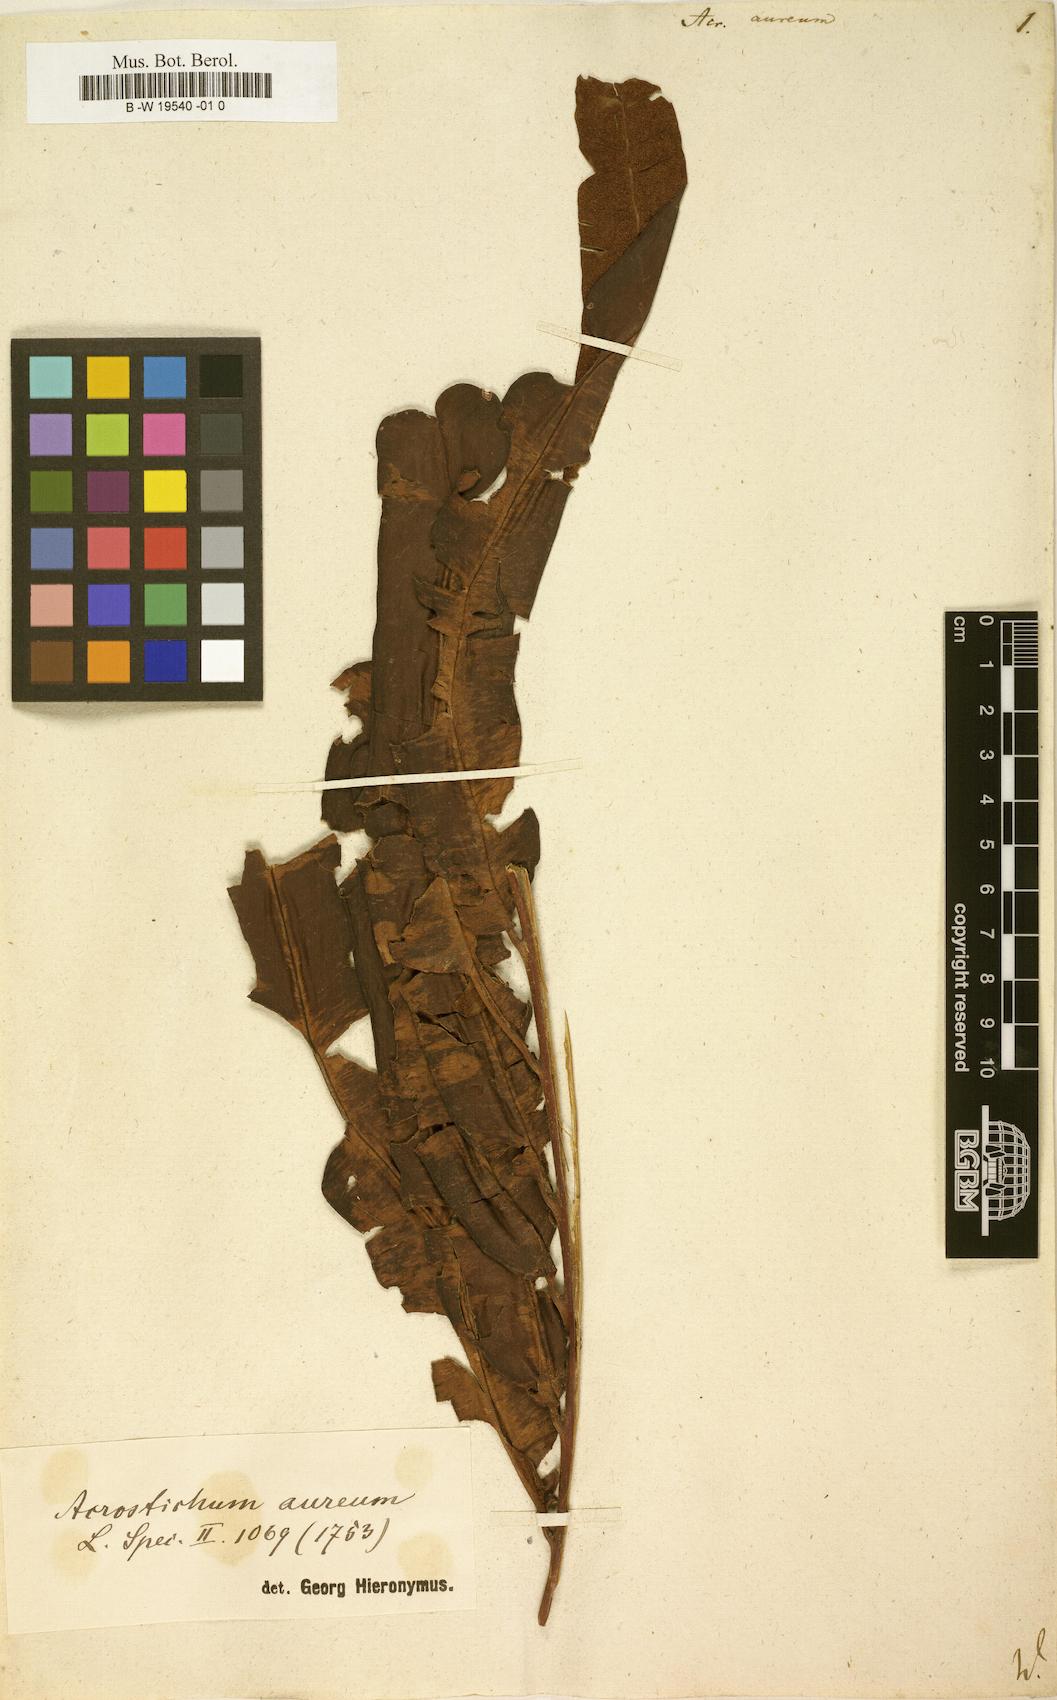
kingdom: Plantae
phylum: Tracheophyta
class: Polypodiopsida
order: Polypodiales
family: Pteridaceae
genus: Acrostichum
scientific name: Acrostichum aureum
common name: Leather fern
